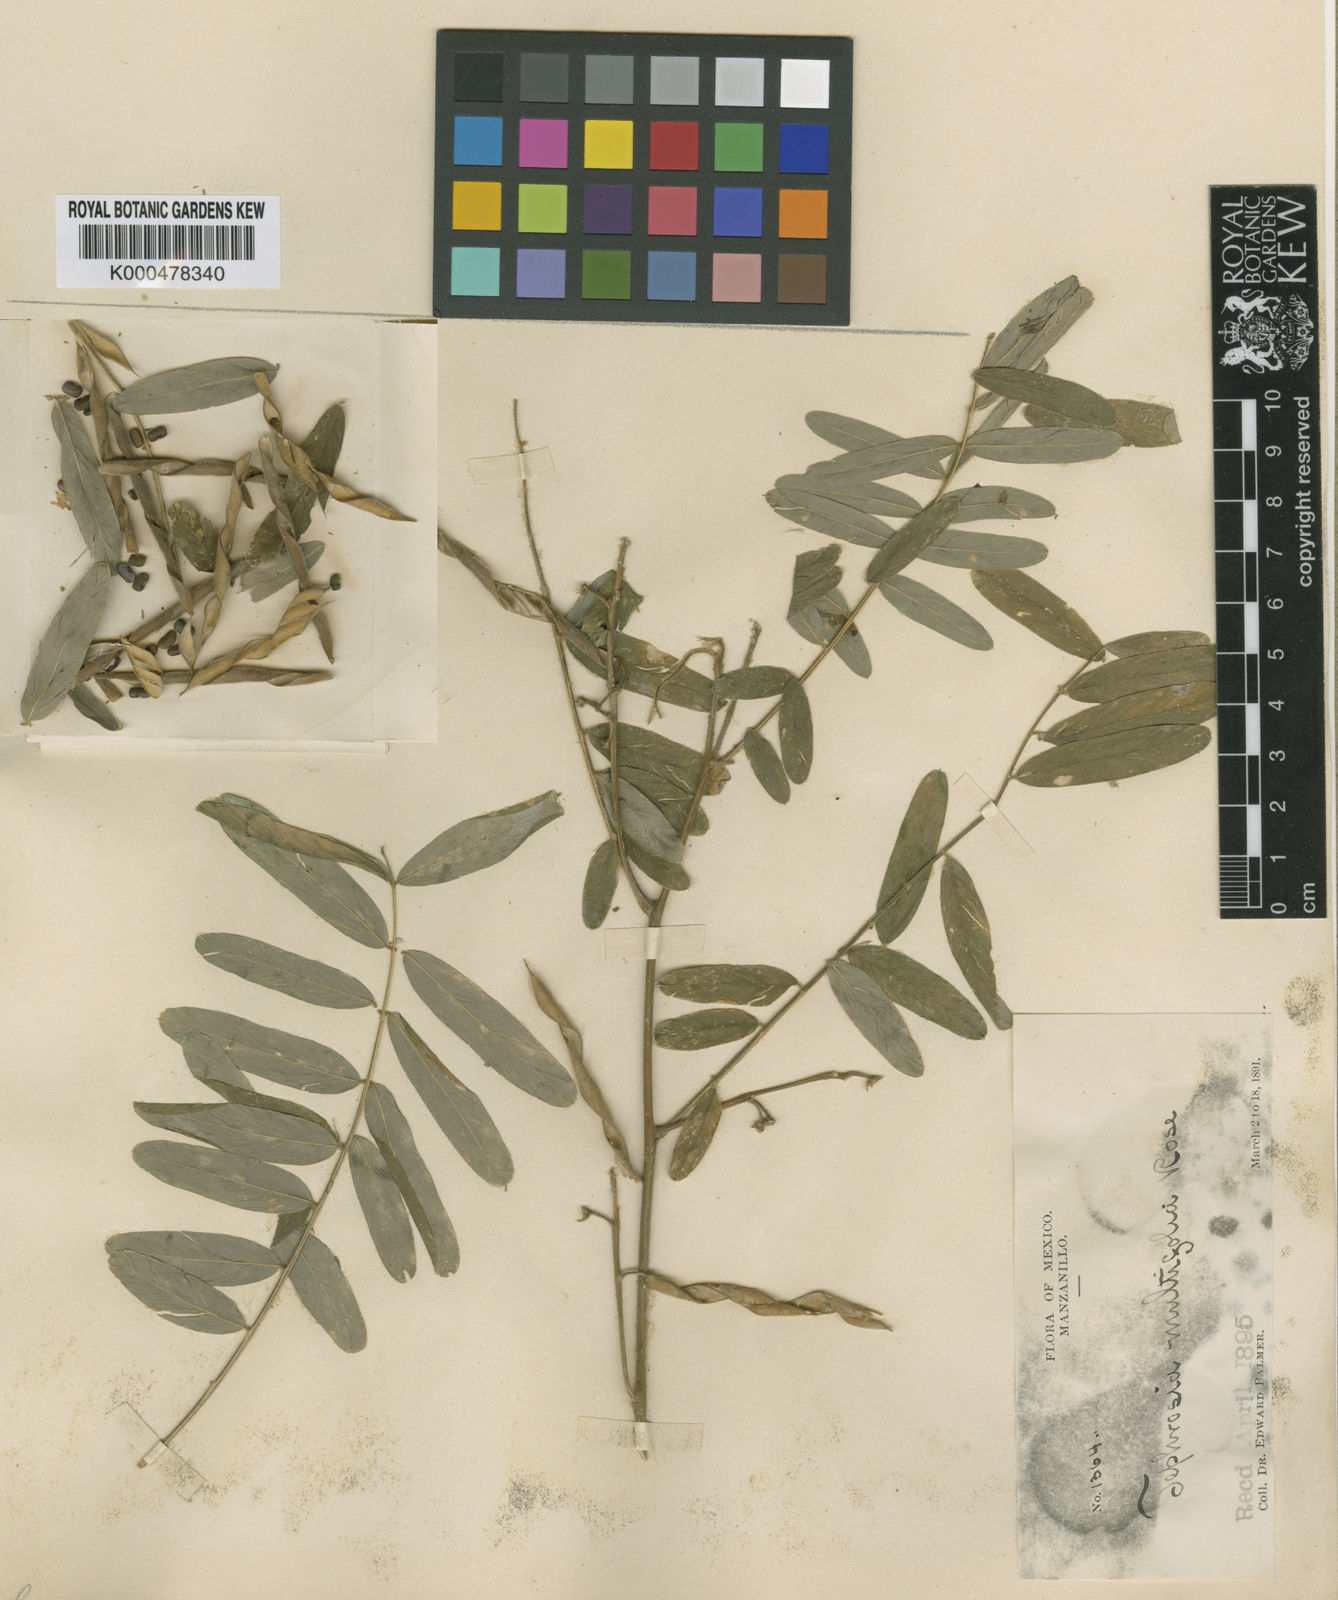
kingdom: Plantae
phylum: Tracheophyta
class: Magnoliopsida
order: Fabales
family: Fabaceae
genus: Tephrosia
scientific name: Tephrosia multifolia
